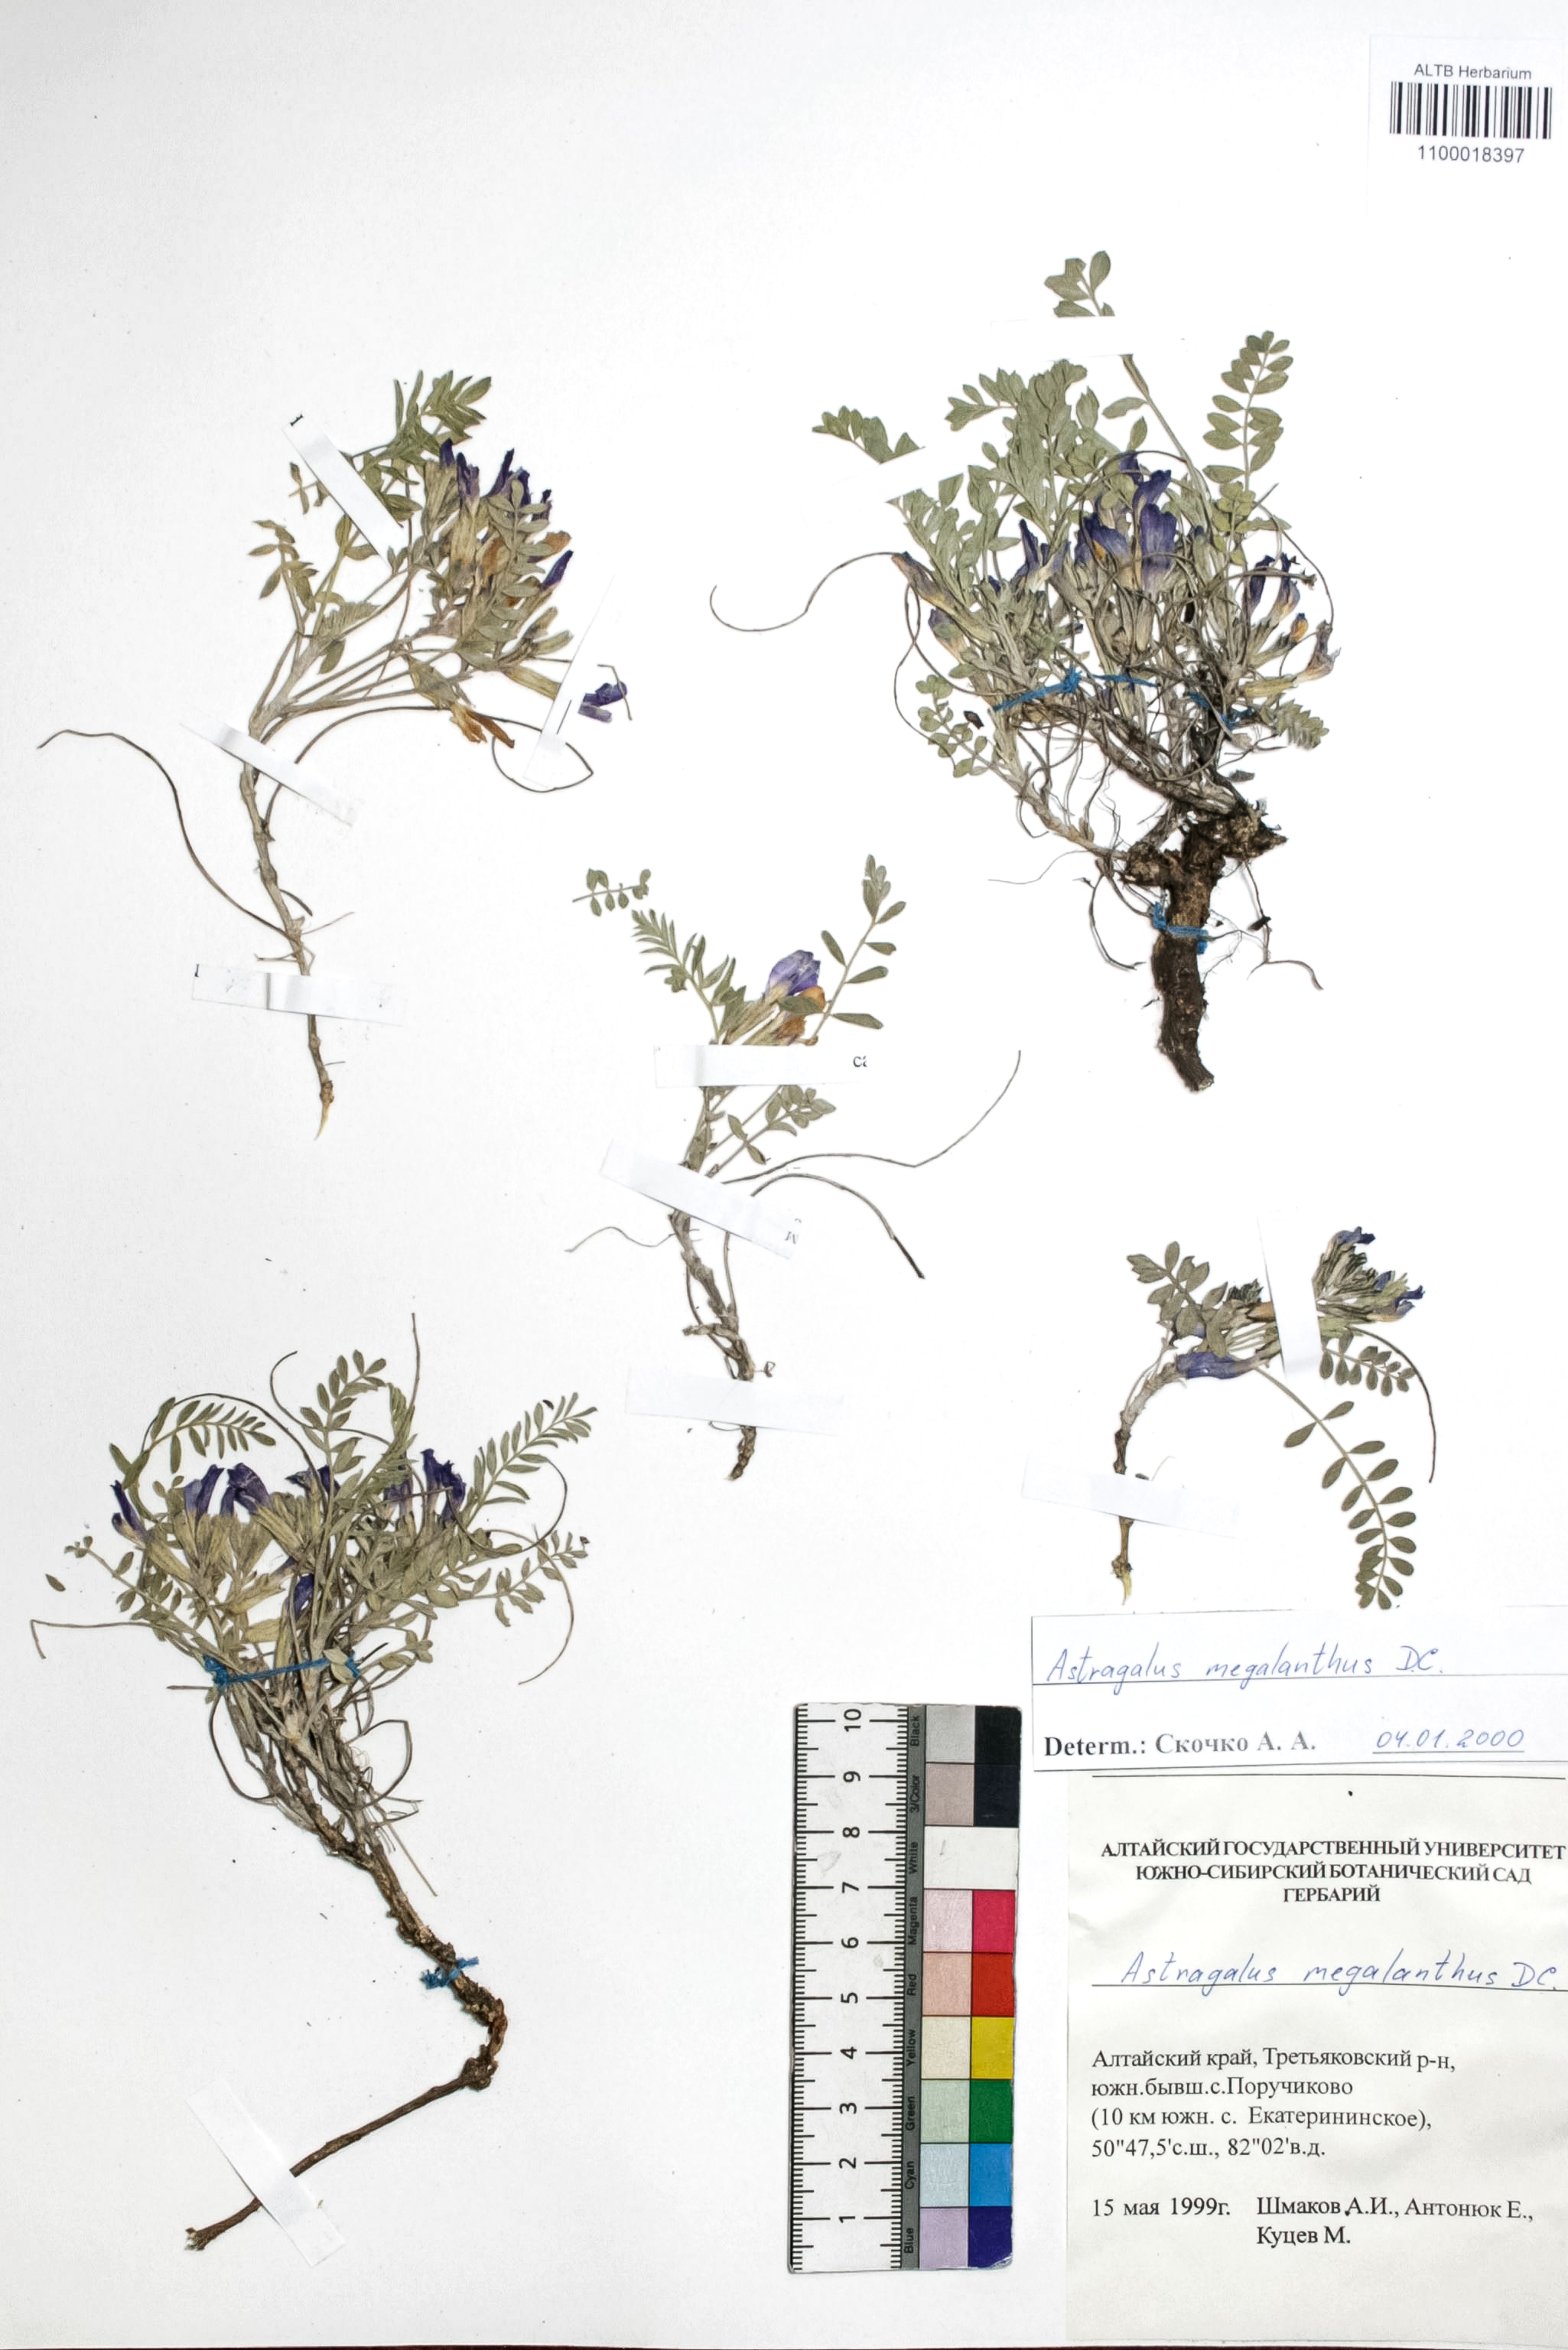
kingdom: Plantae
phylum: Tracheophyta
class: Magnoliopsida
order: Fabales
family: Fabaceae
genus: Astragalus
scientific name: Astragalus leptostachys
